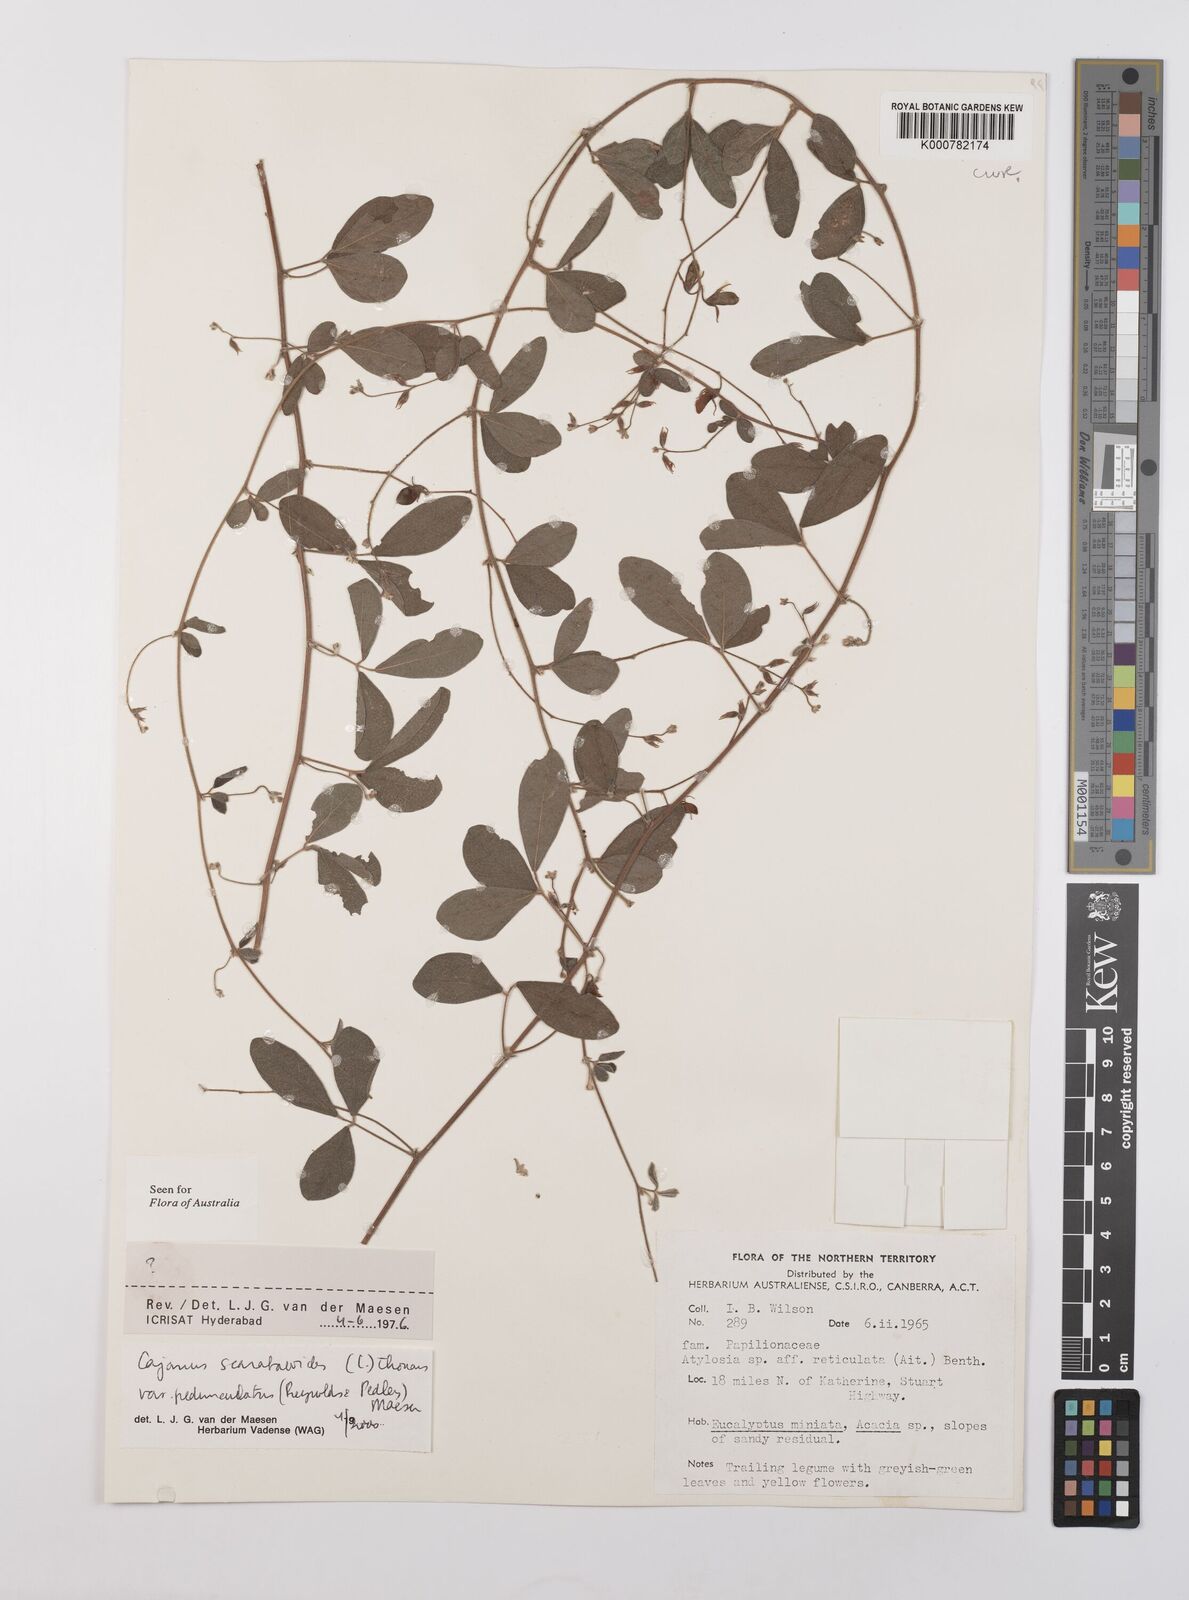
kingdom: Plantae
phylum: Tracheophyta
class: Magnoliopsida
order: Fabales
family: Fabaceae
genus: Cajanus
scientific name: Cajanus scarabaeoides
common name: Showy pigeonpea
